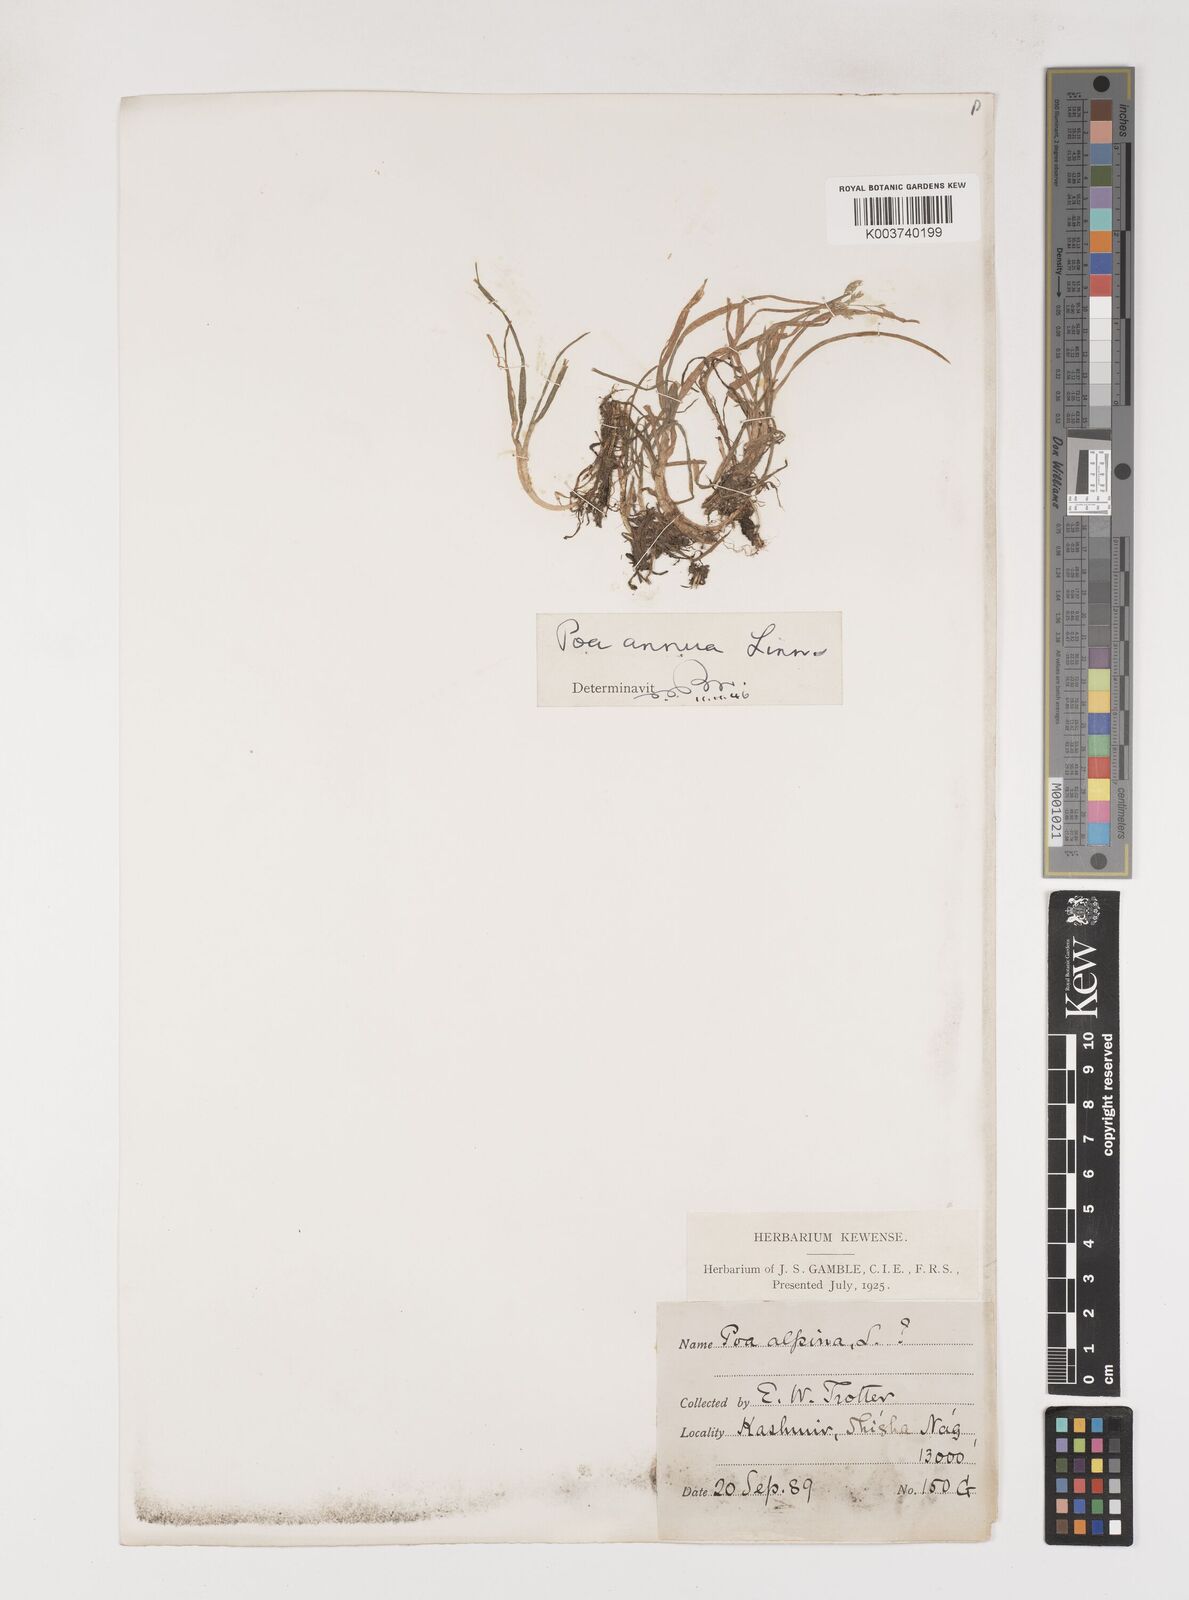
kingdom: Plantae
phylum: Tracheophyta
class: Liliopsida
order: Poales
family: Poaceae
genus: Poa
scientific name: Poa annua
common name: Annual bluegrass
